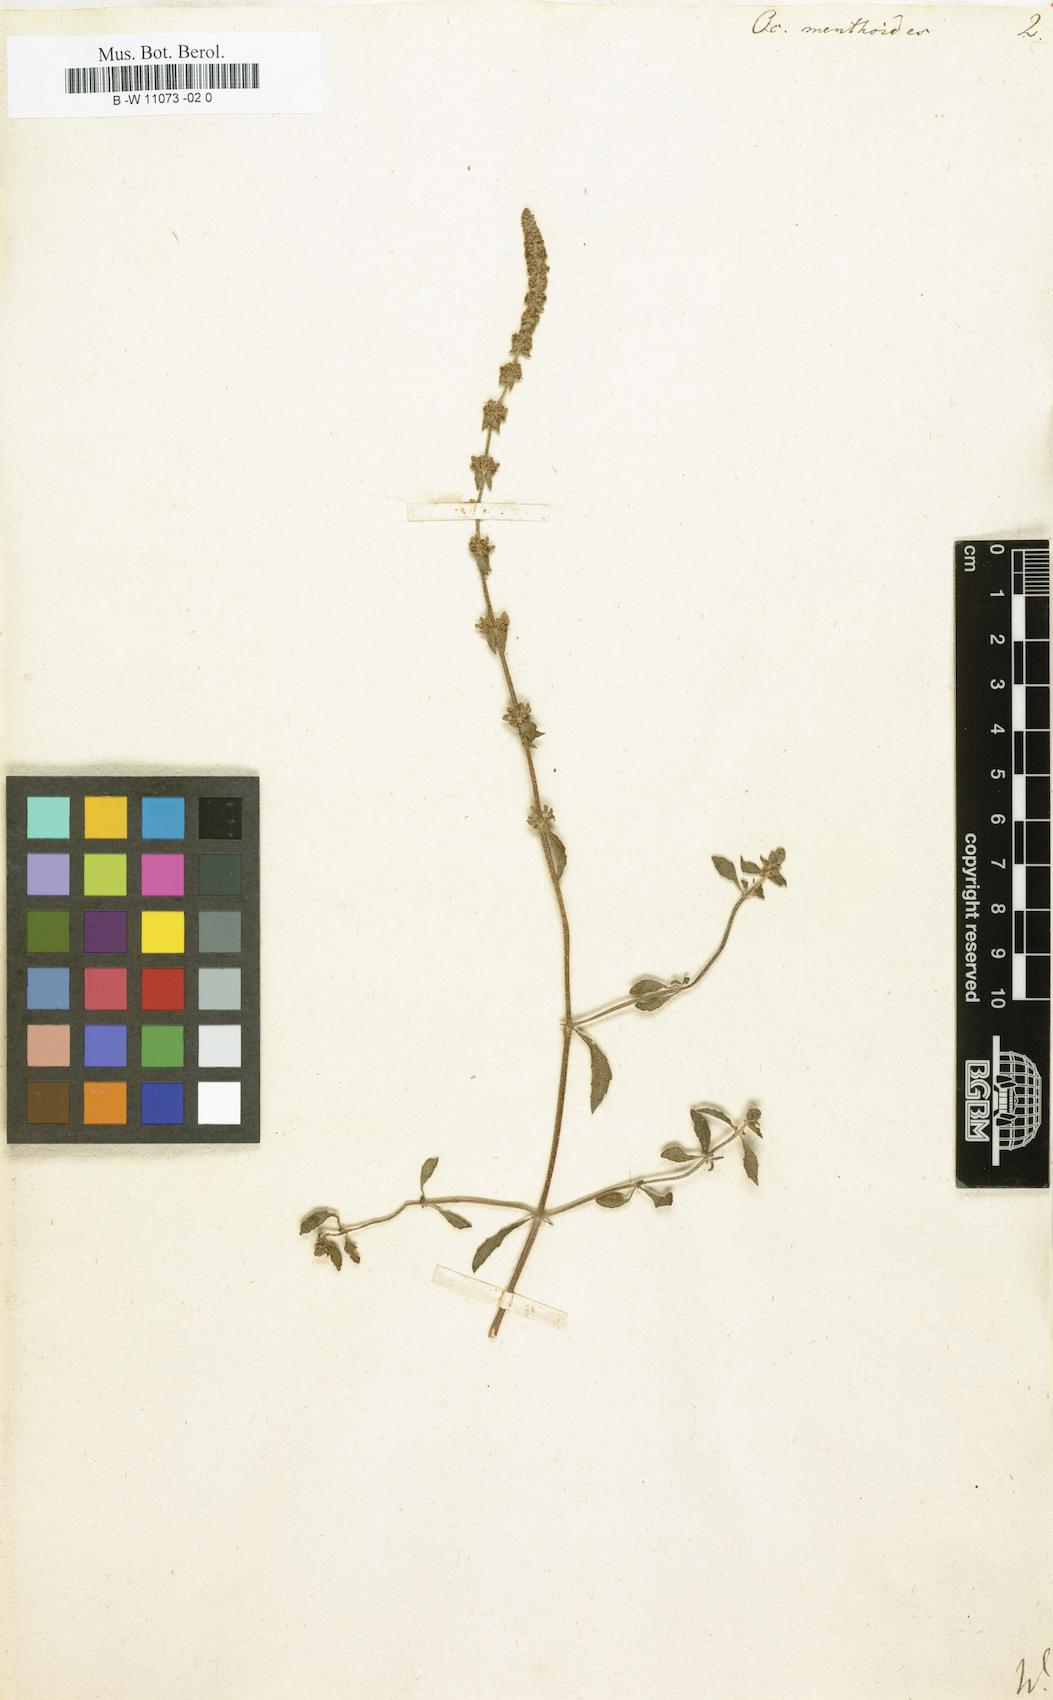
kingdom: Plantae
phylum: Tracheophyta
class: Magnoliopsida
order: Lamiales
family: Lamiaceae
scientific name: Lamiaceae
